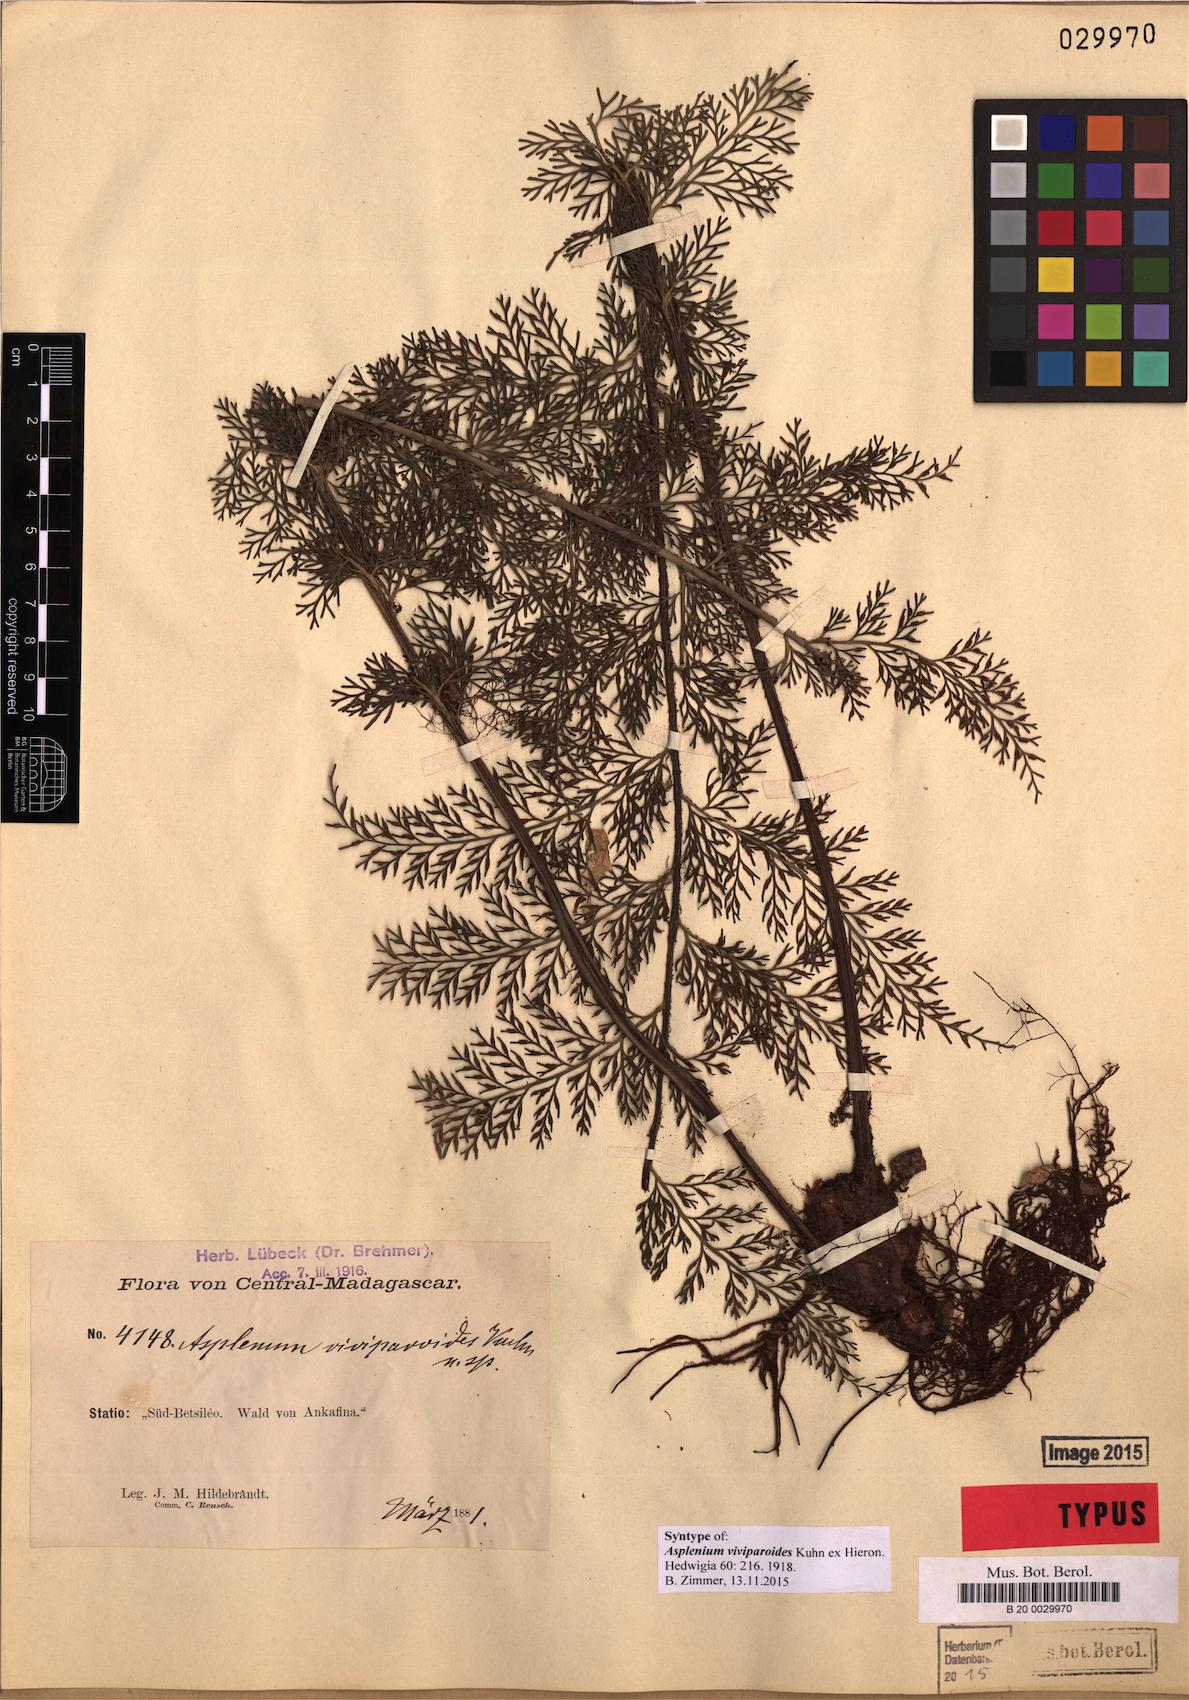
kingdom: Plantae
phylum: Tracheophyta
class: Polypodiopsida
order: Polypodiales
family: Aspleniaceae
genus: Asplenium
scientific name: Asplenium viviparioides
